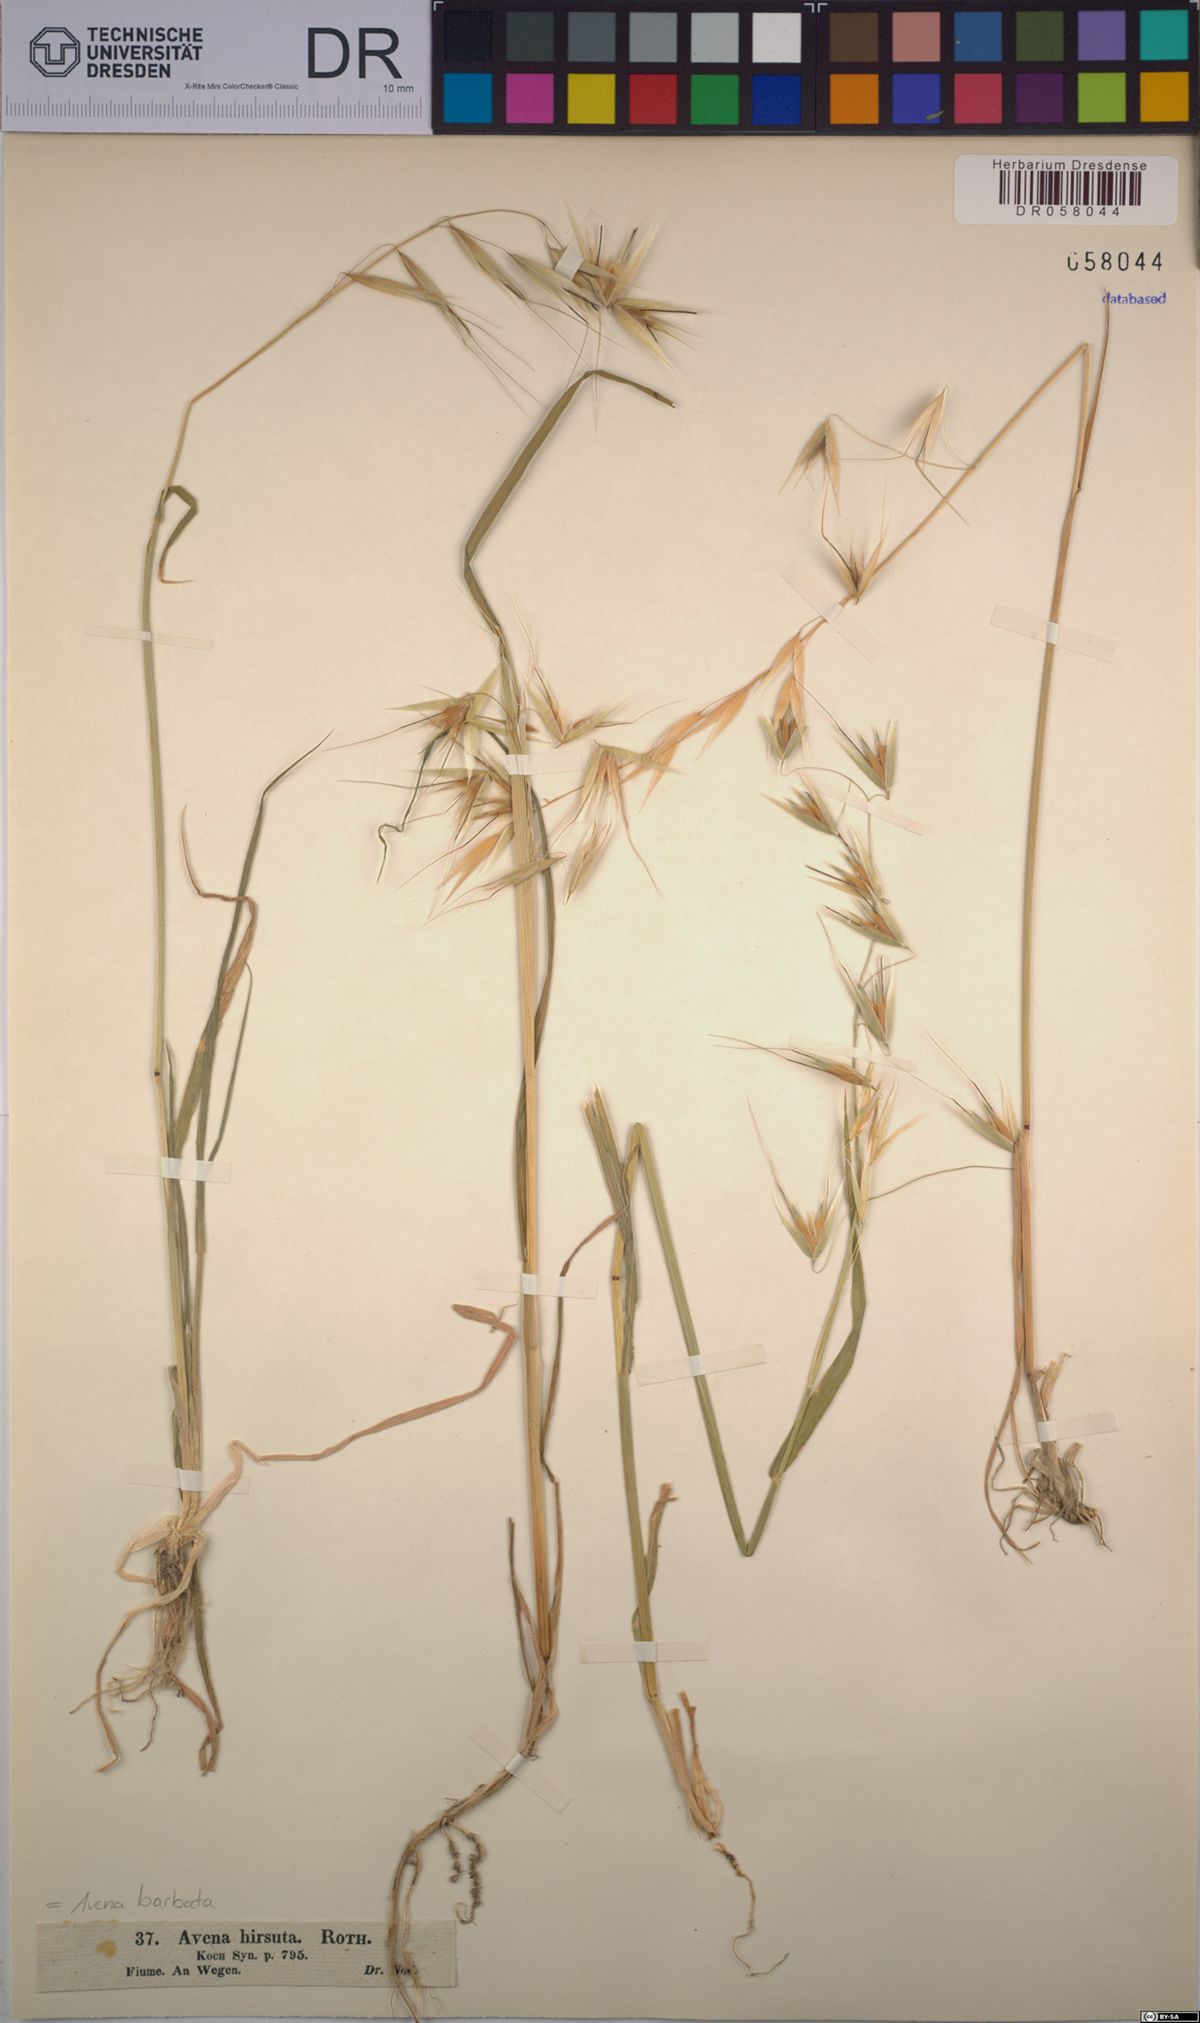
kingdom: Plantae
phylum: Tracheophyta
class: Liliopsida
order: Poales
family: Poaceae
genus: Avena
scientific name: Avena barbata
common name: Slender oat
